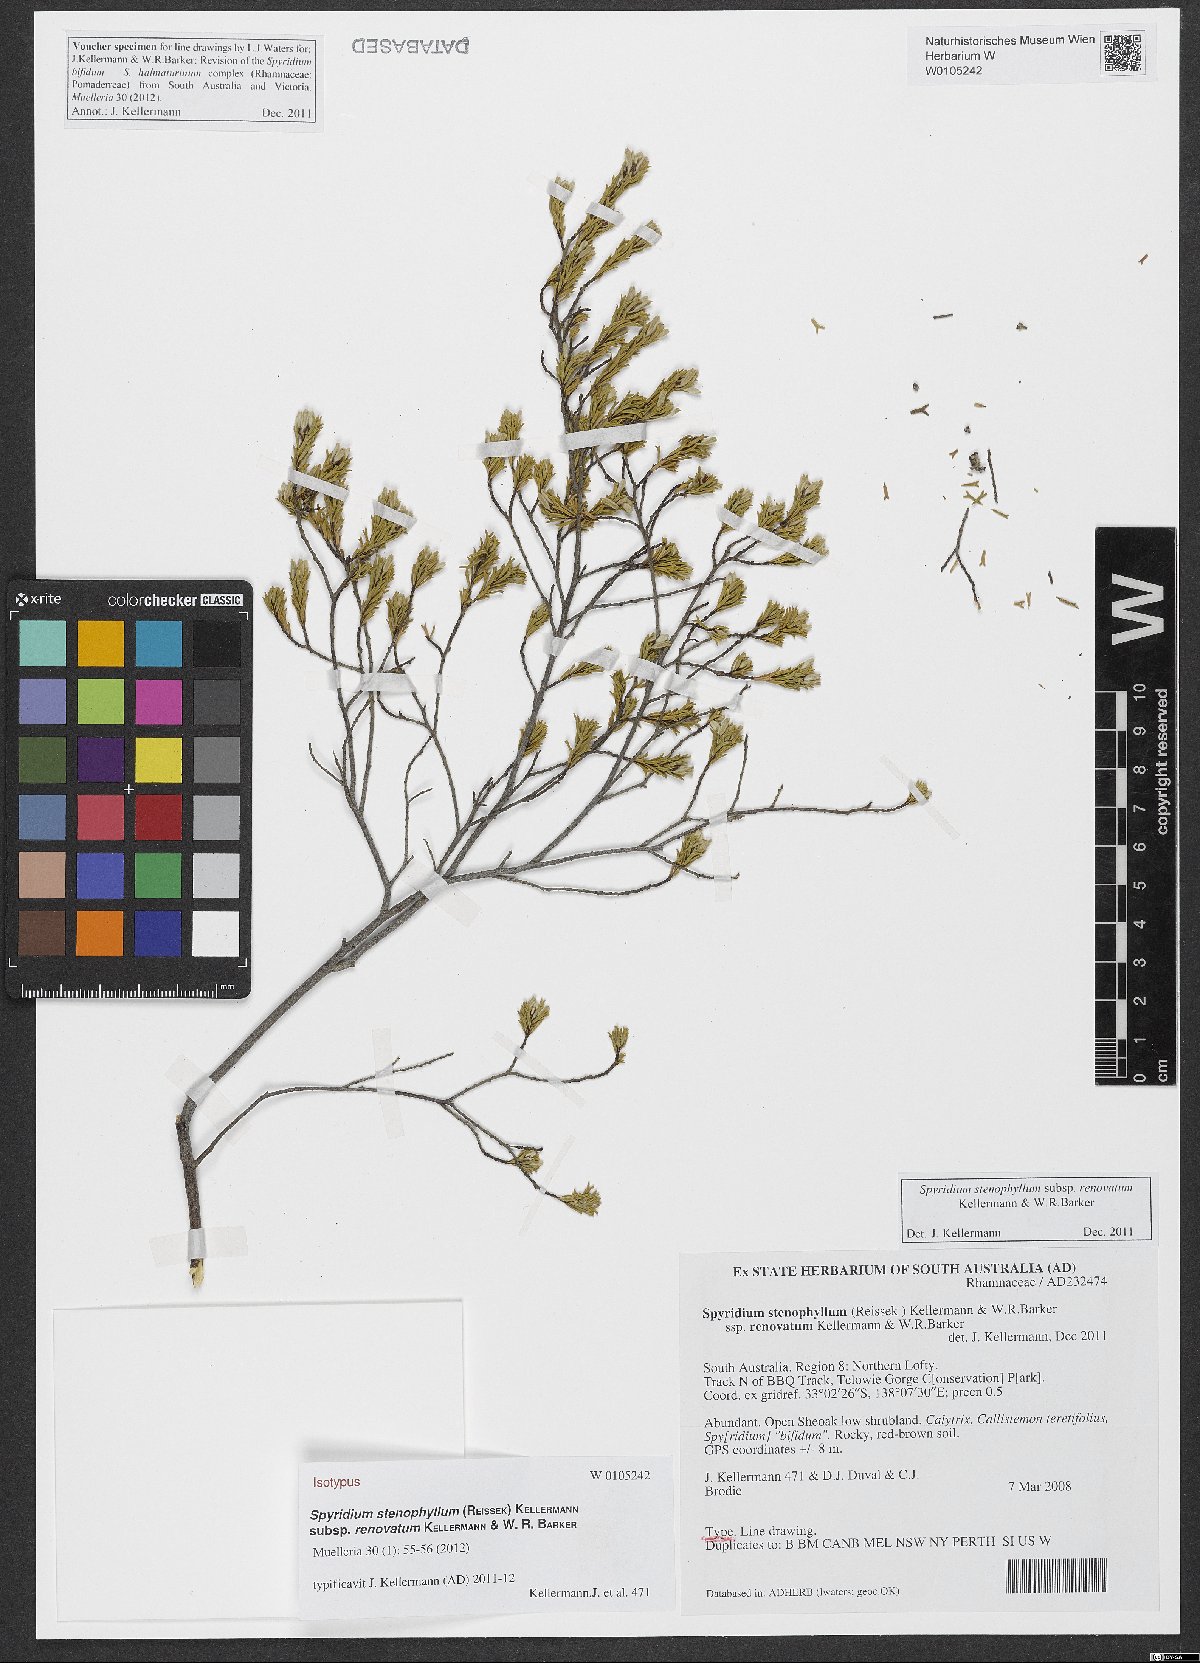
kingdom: Plantae
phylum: Tracheophyta
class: Magnoliopsida
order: Rosales
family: Rhamnaceae
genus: Spyridium
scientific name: Spyridium stenophyllum
